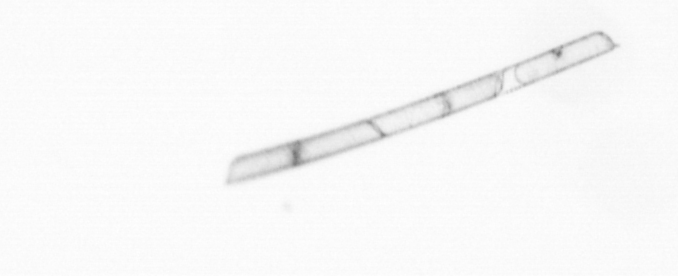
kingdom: Chromista
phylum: Ochrophyta
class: Bacillariophyceae
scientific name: Bacillariophyceae
